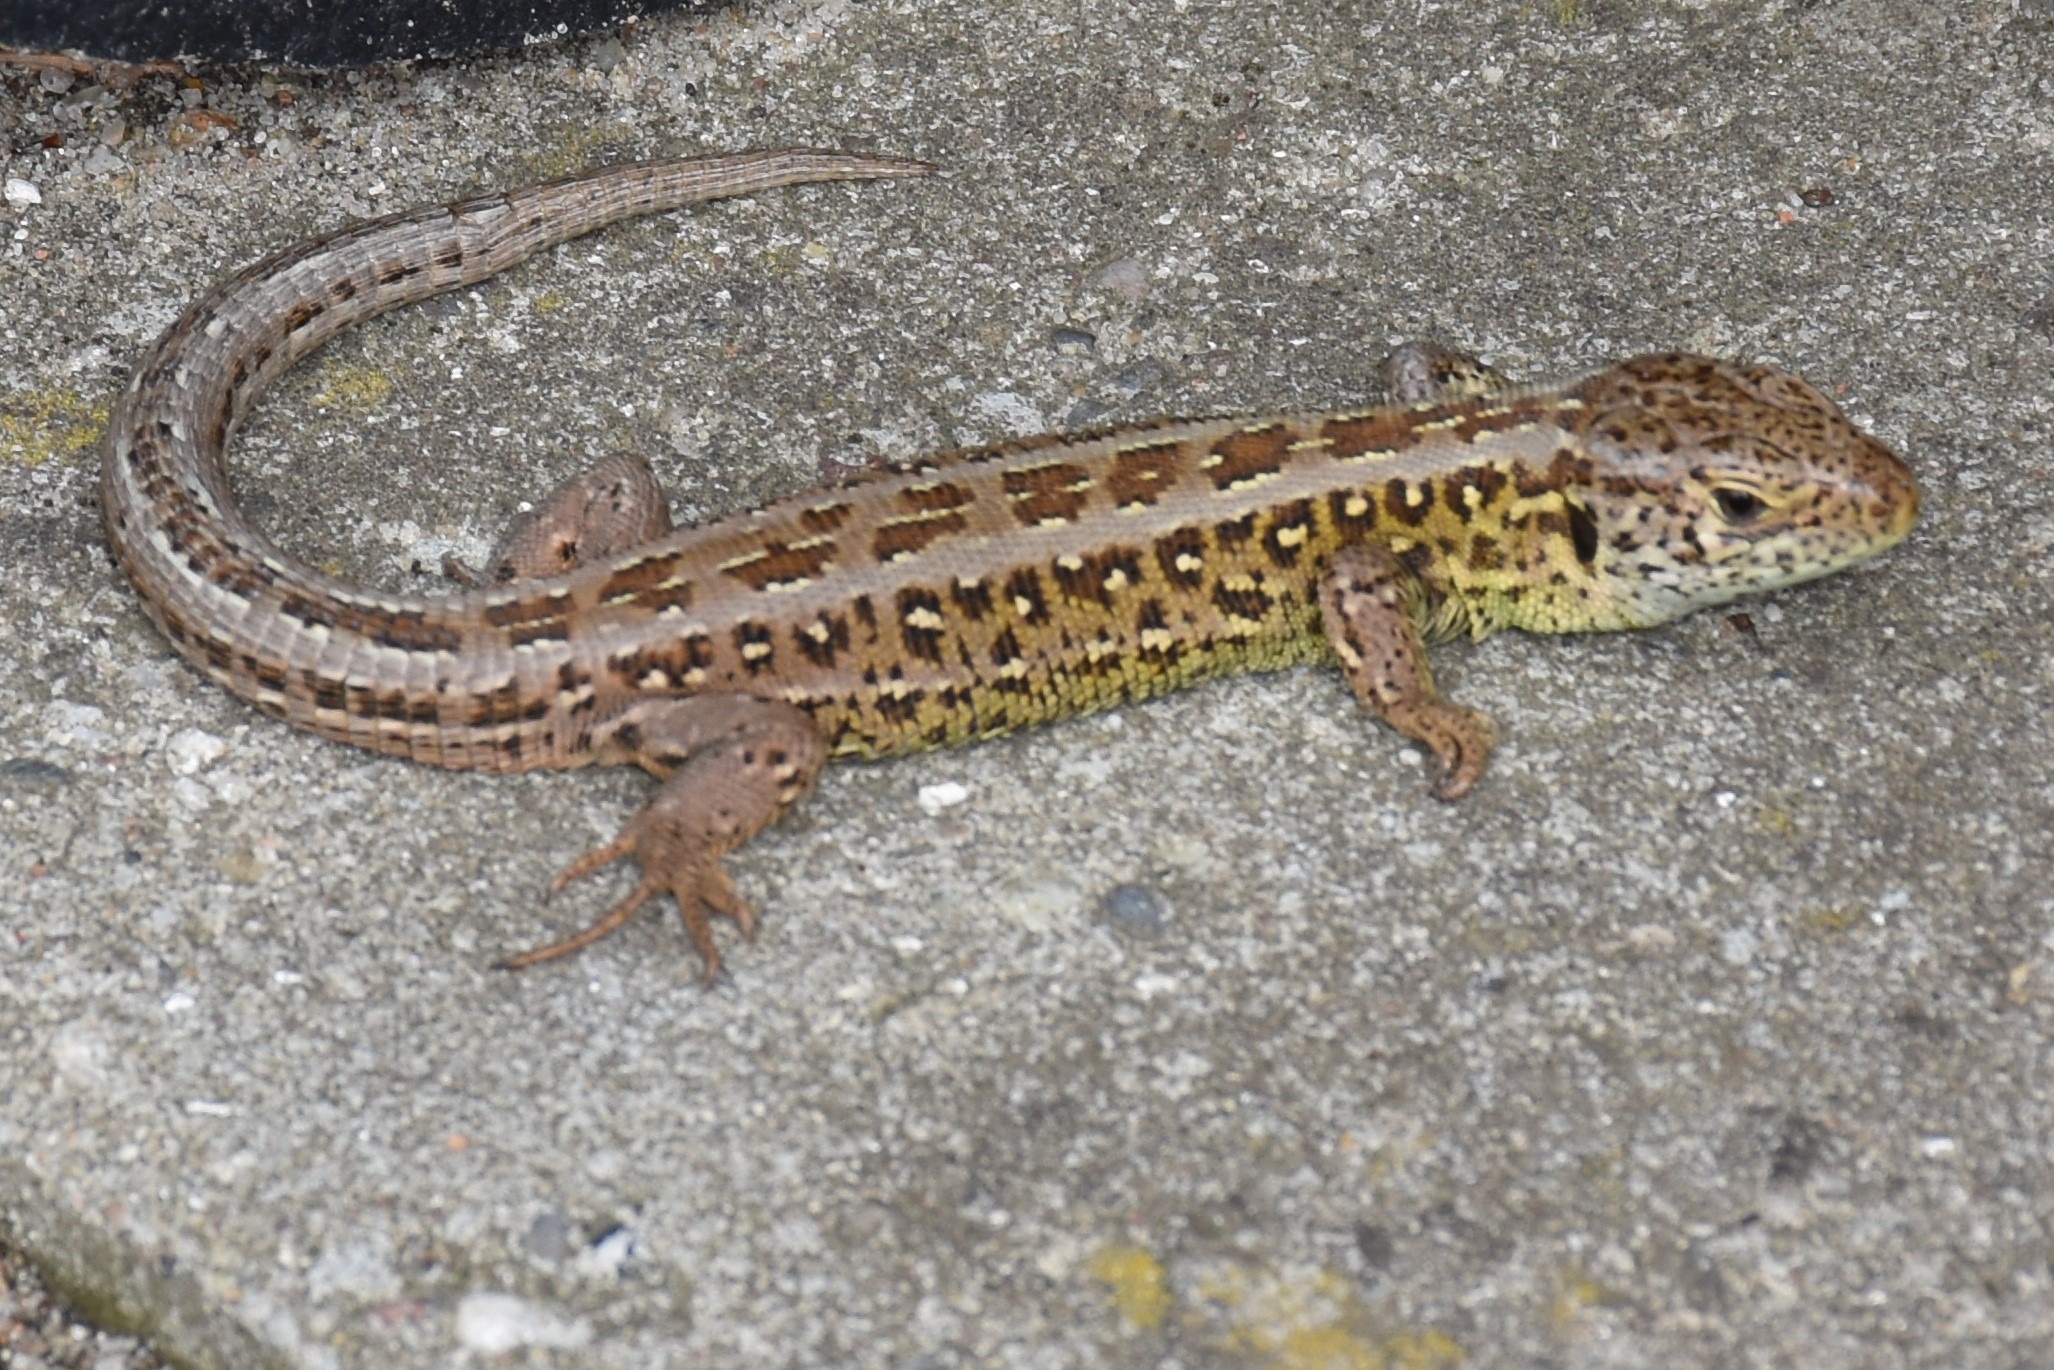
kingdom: Animalia
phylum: Chordata
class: Squamata
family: Lacertidae
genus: Lacerta
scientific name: Lacerta agilis
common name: Markfirben
